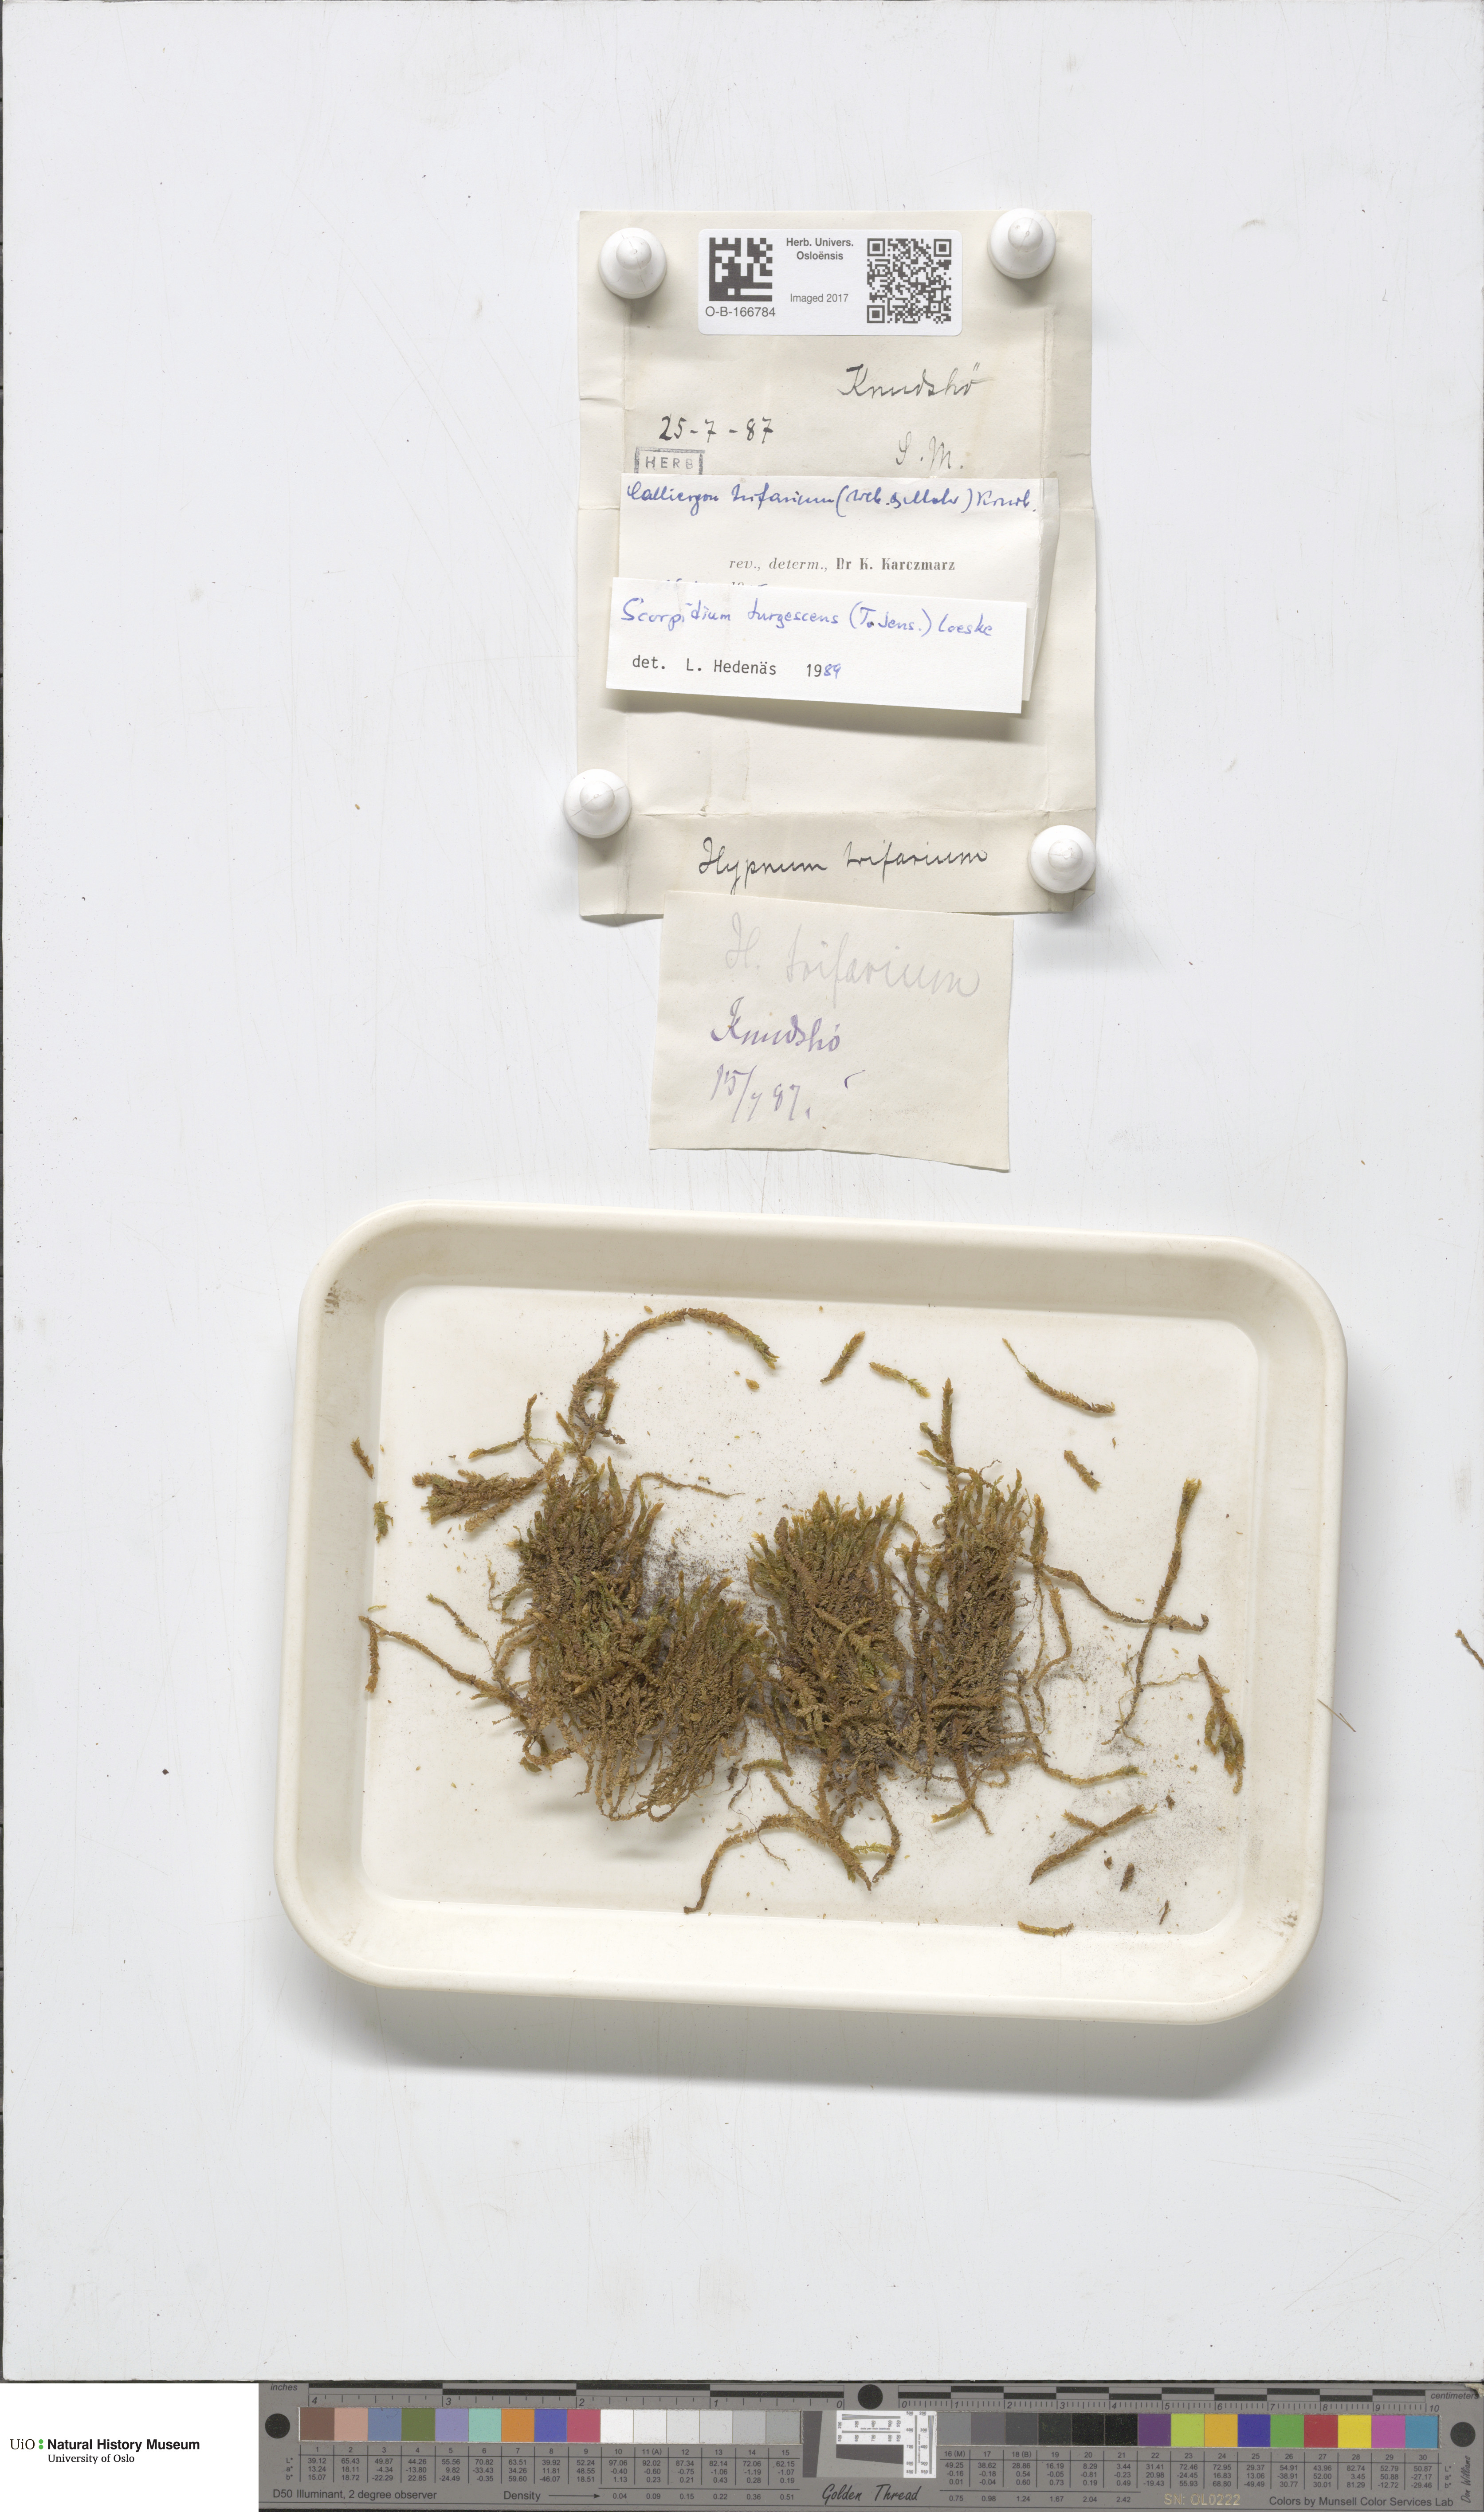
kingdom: Plantae
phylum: Bryophyta
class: Bryopsida
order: Hypnales
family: Amblystegiaceae
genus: Drepanocladus
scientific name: Drepanocladus turgescens
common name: Large yellow feather-moss
